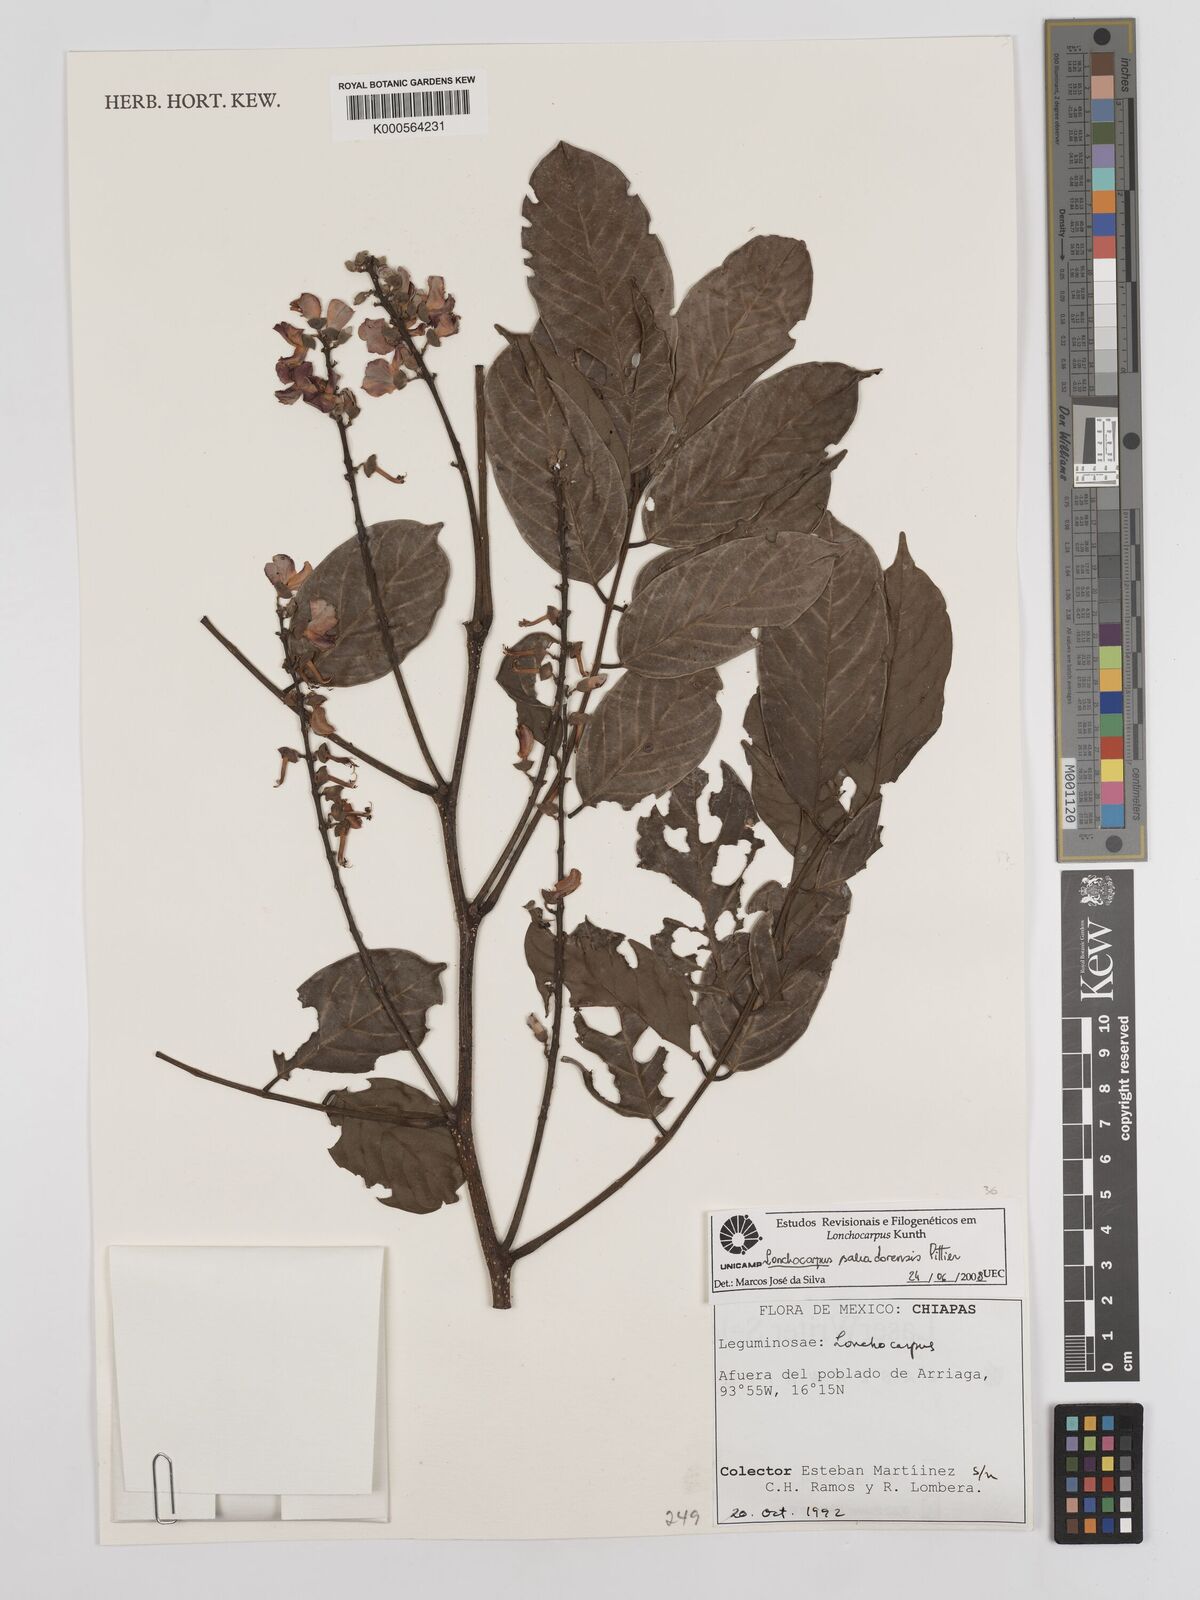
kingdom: Plantae
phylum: Tracheophyta
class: Magnoliopsida
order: Fabales
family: Fabaceae
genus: Lonchocarpus
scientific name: Lonchocarpus salvadorensis
